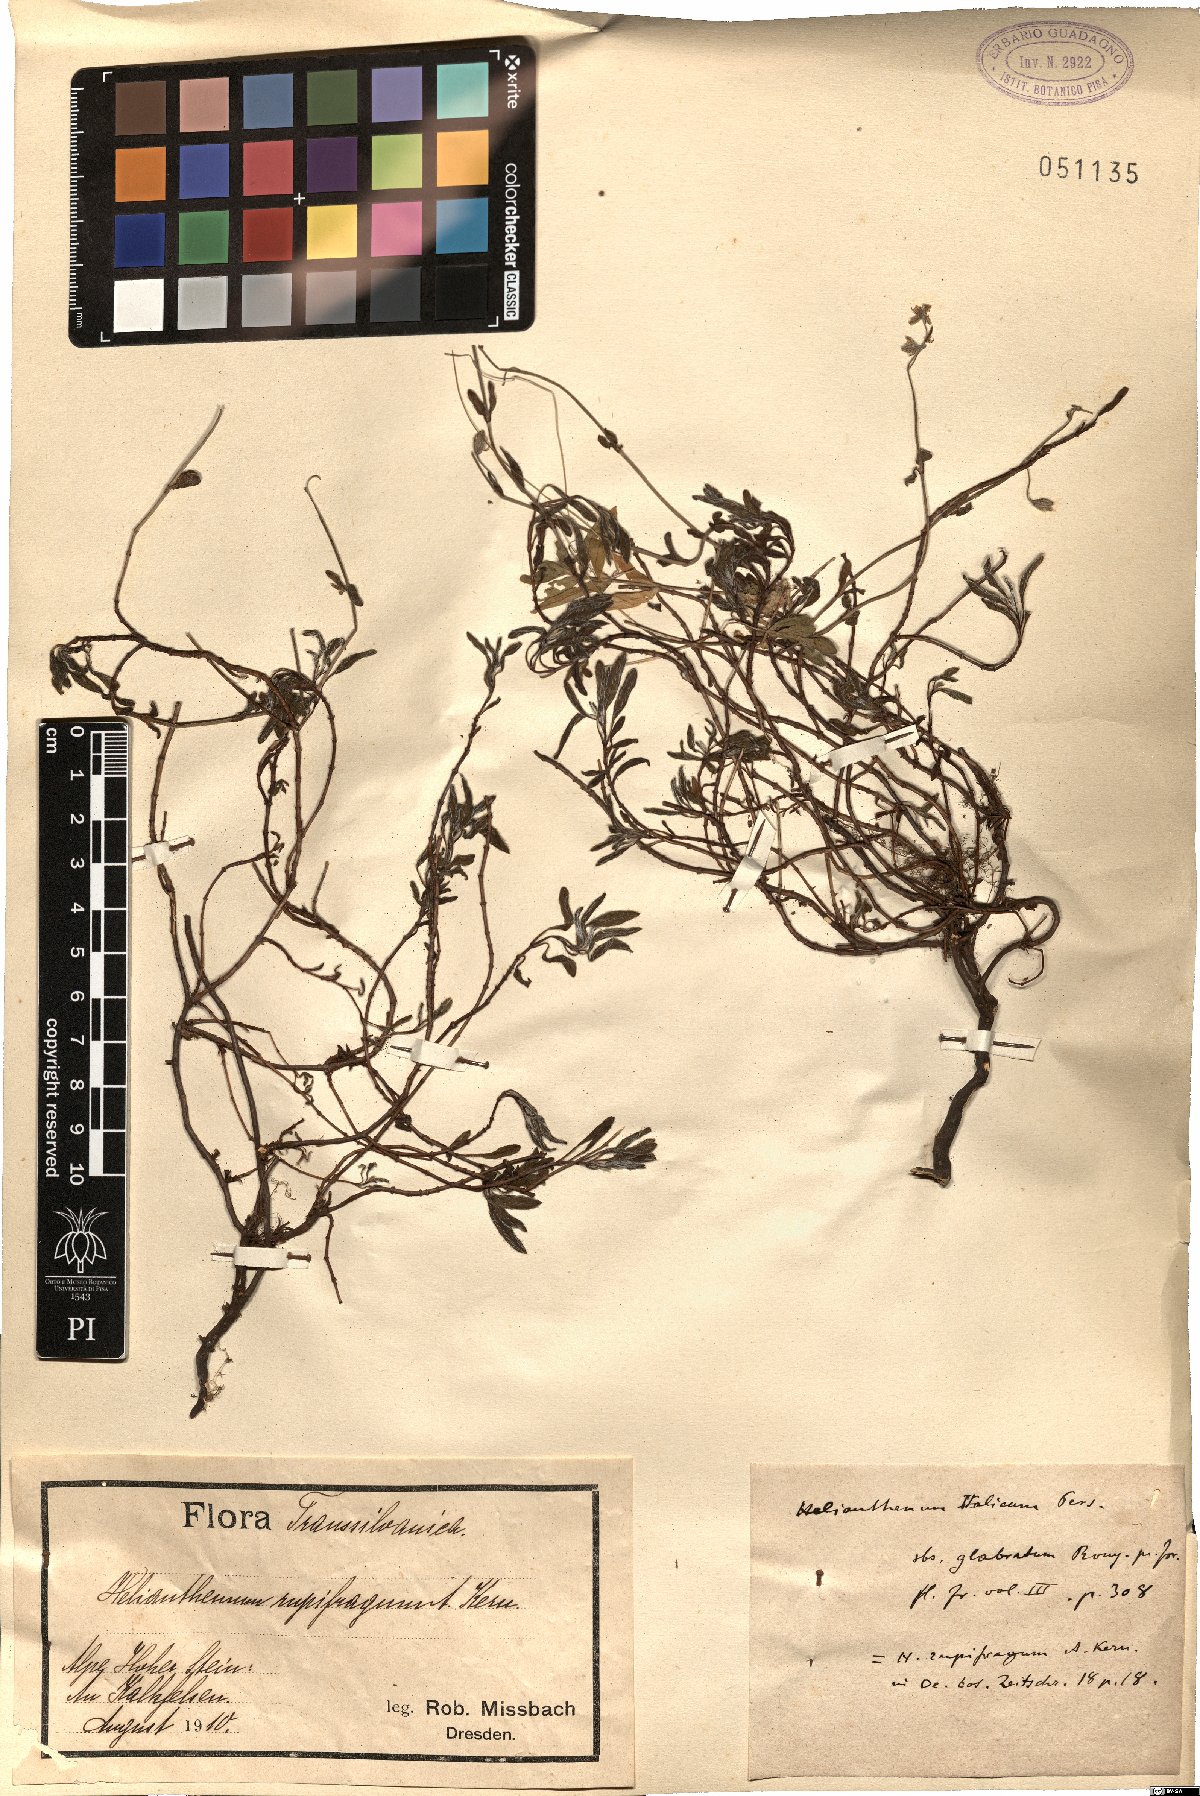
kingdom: Plantae
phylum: Tracheophyta
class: Magnoliopsida
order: Malvales
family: Cistaceae
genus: Helianthemum
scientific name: Helianthemum italicum
